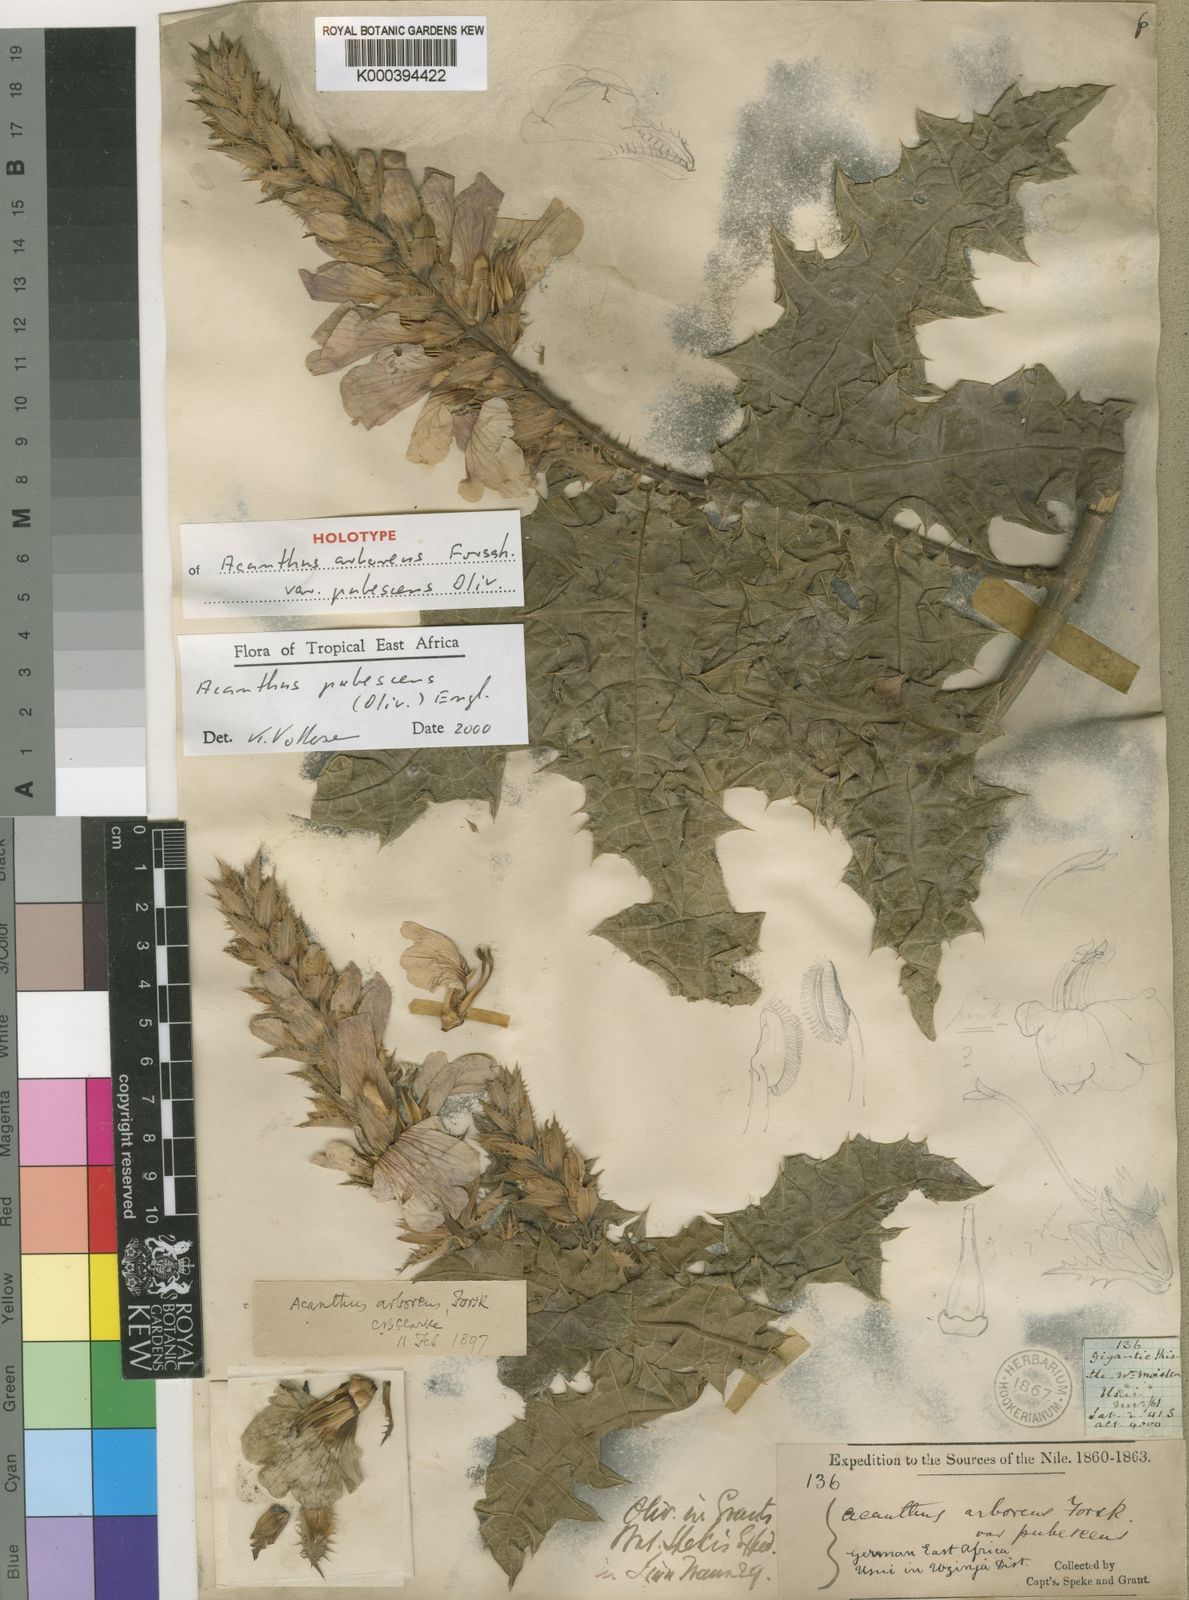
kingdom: Plantae
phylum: Tracheophyta
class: Magnoliopsida
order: Lamiales
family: Acanthaceae
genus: Acanthus
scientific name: Acanthus pubescens
